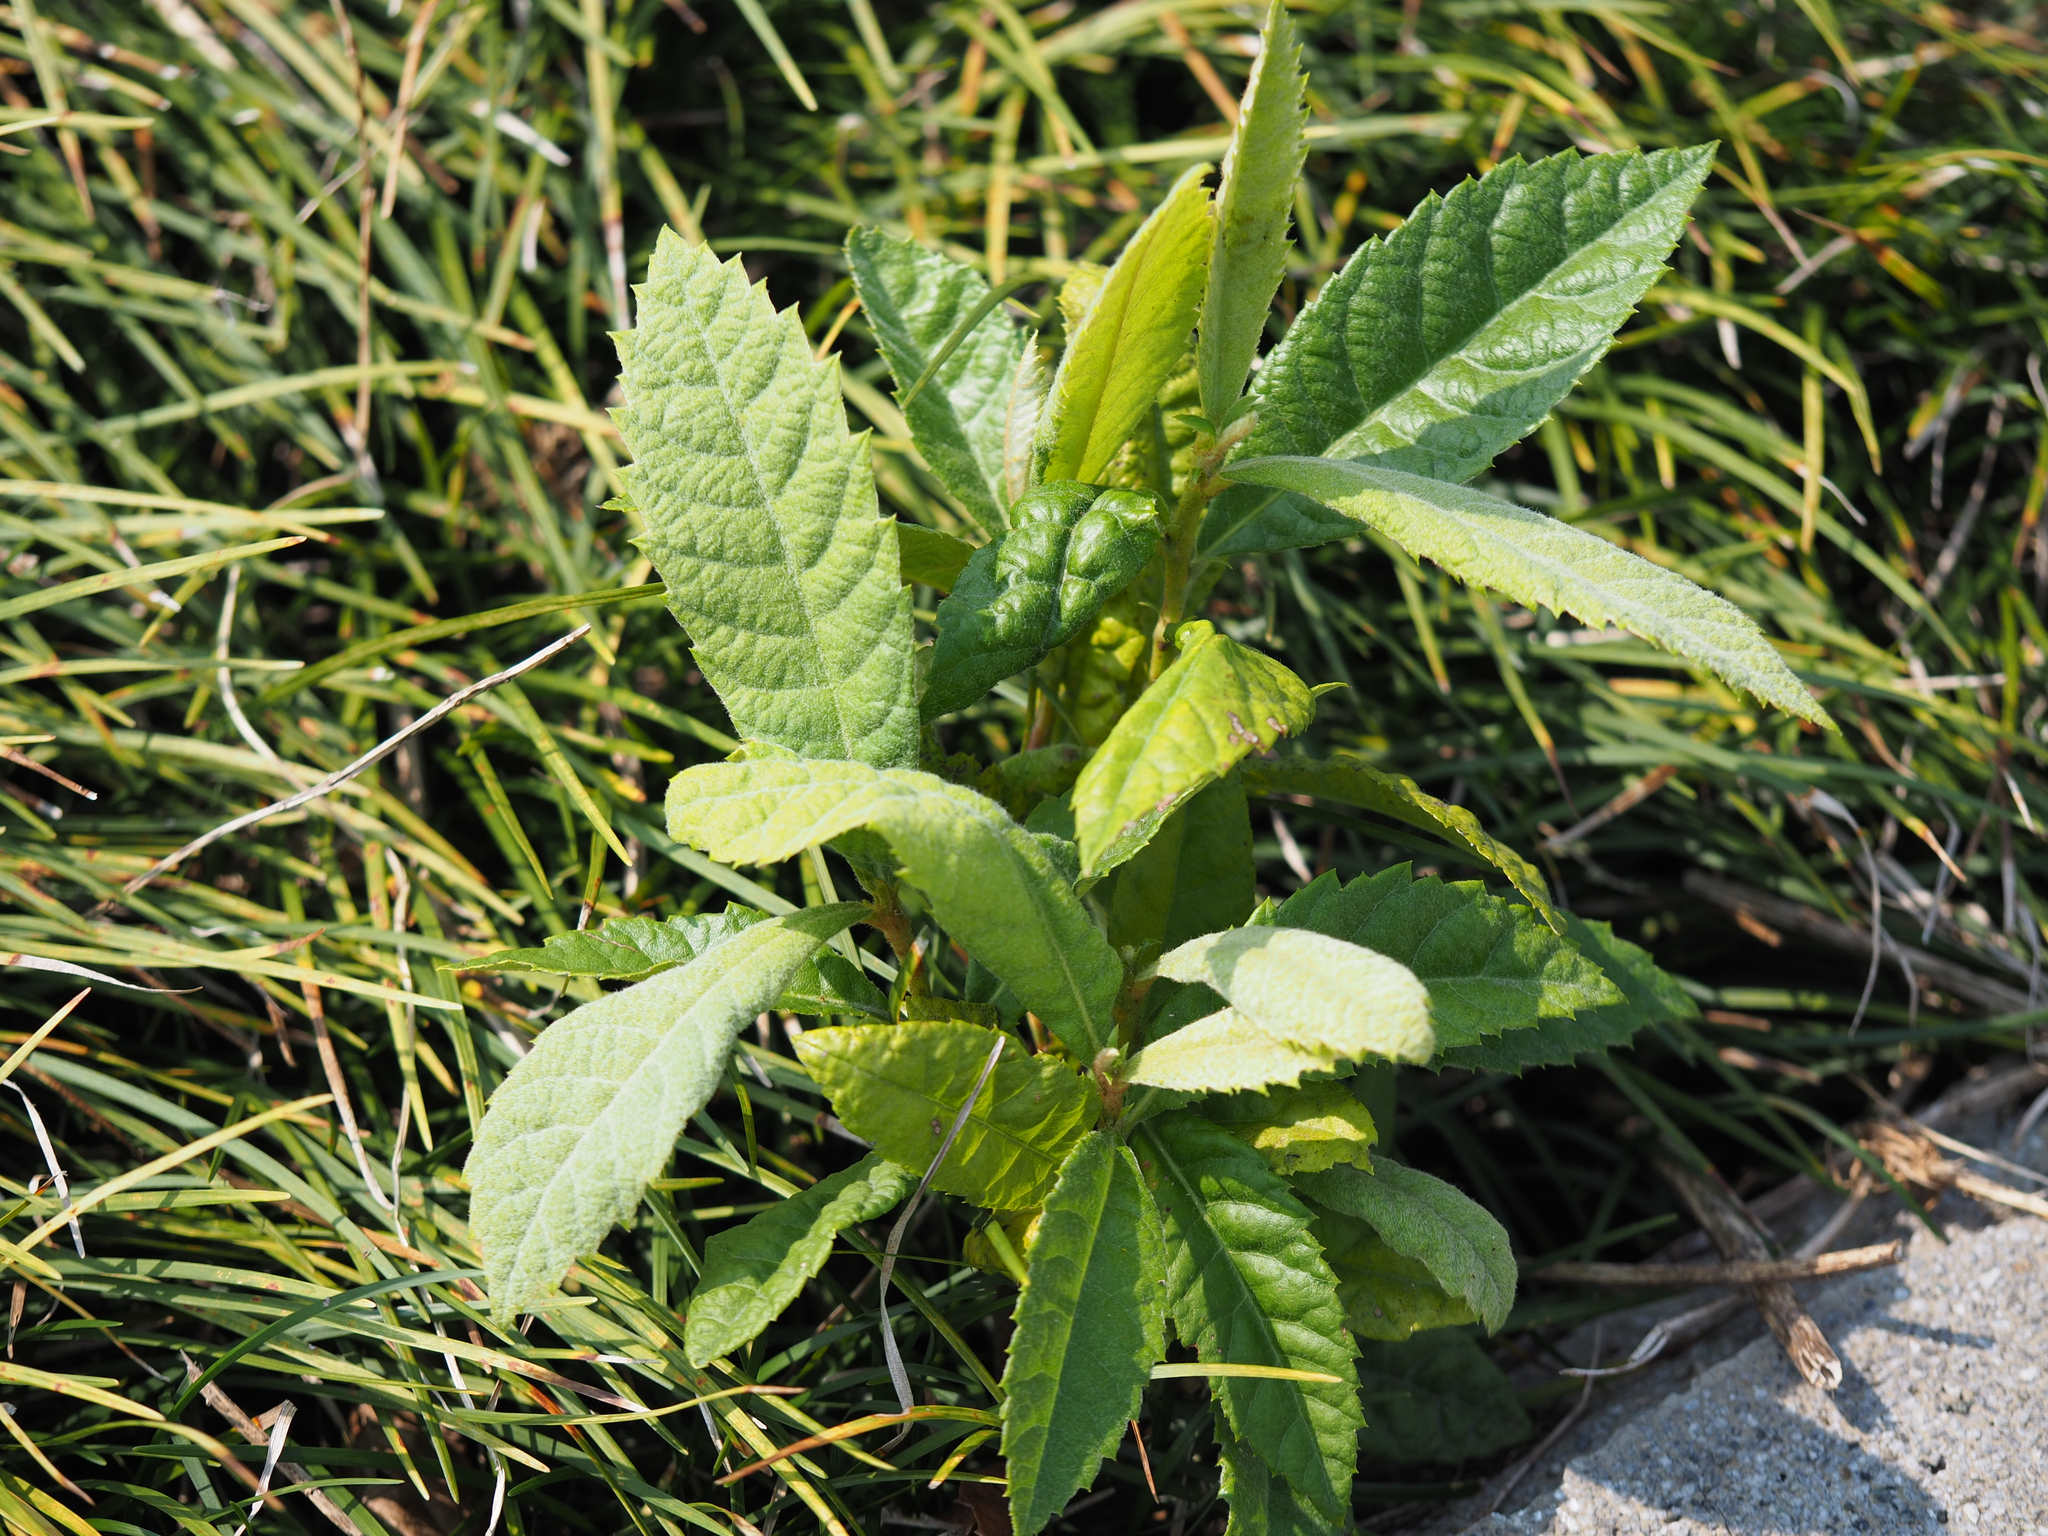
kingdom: Plantae
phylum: Tracheophyta
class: Magnoliopsida
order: Rosales
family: Rosaceae
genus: Rhaphiolepis
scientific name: Rhaphiolepis bibas
